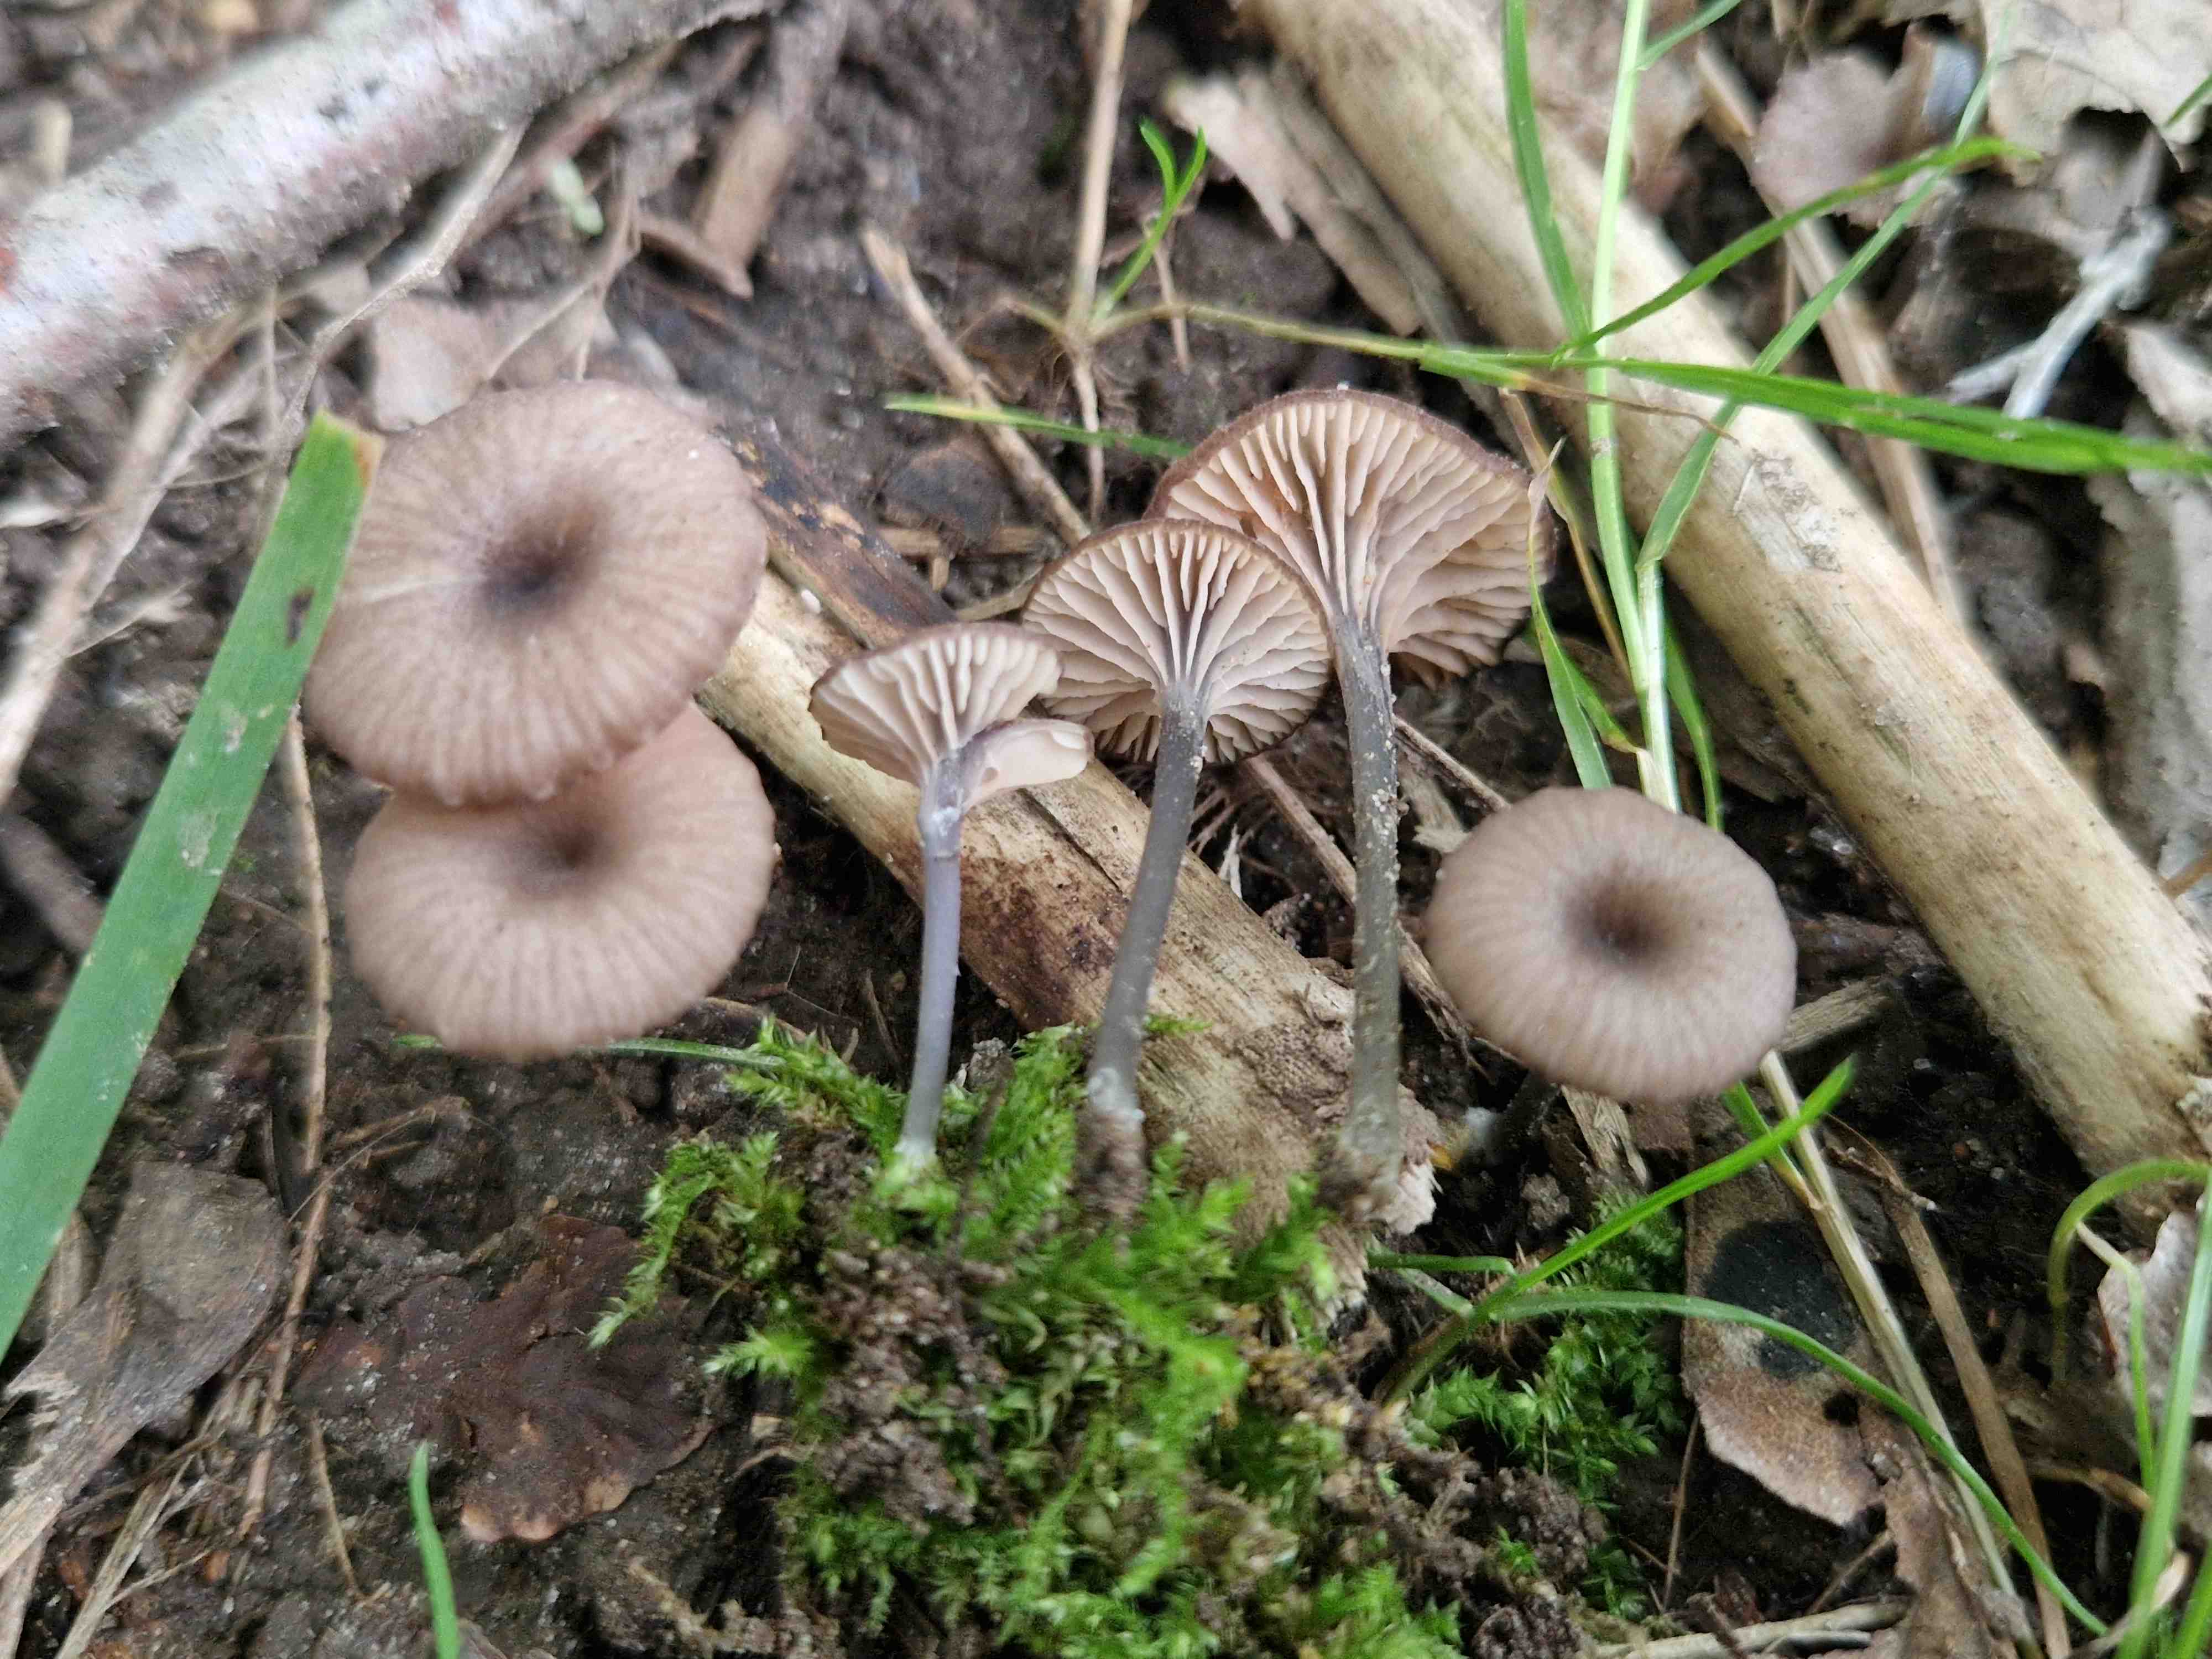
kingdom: Fungi
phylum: Basidiomycota
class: Agaricomycetes
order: Agaricales
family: Entolomataceae
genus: Entoloma
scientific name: Entoloma incarnatofuscescens
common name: tragt-rødblad
